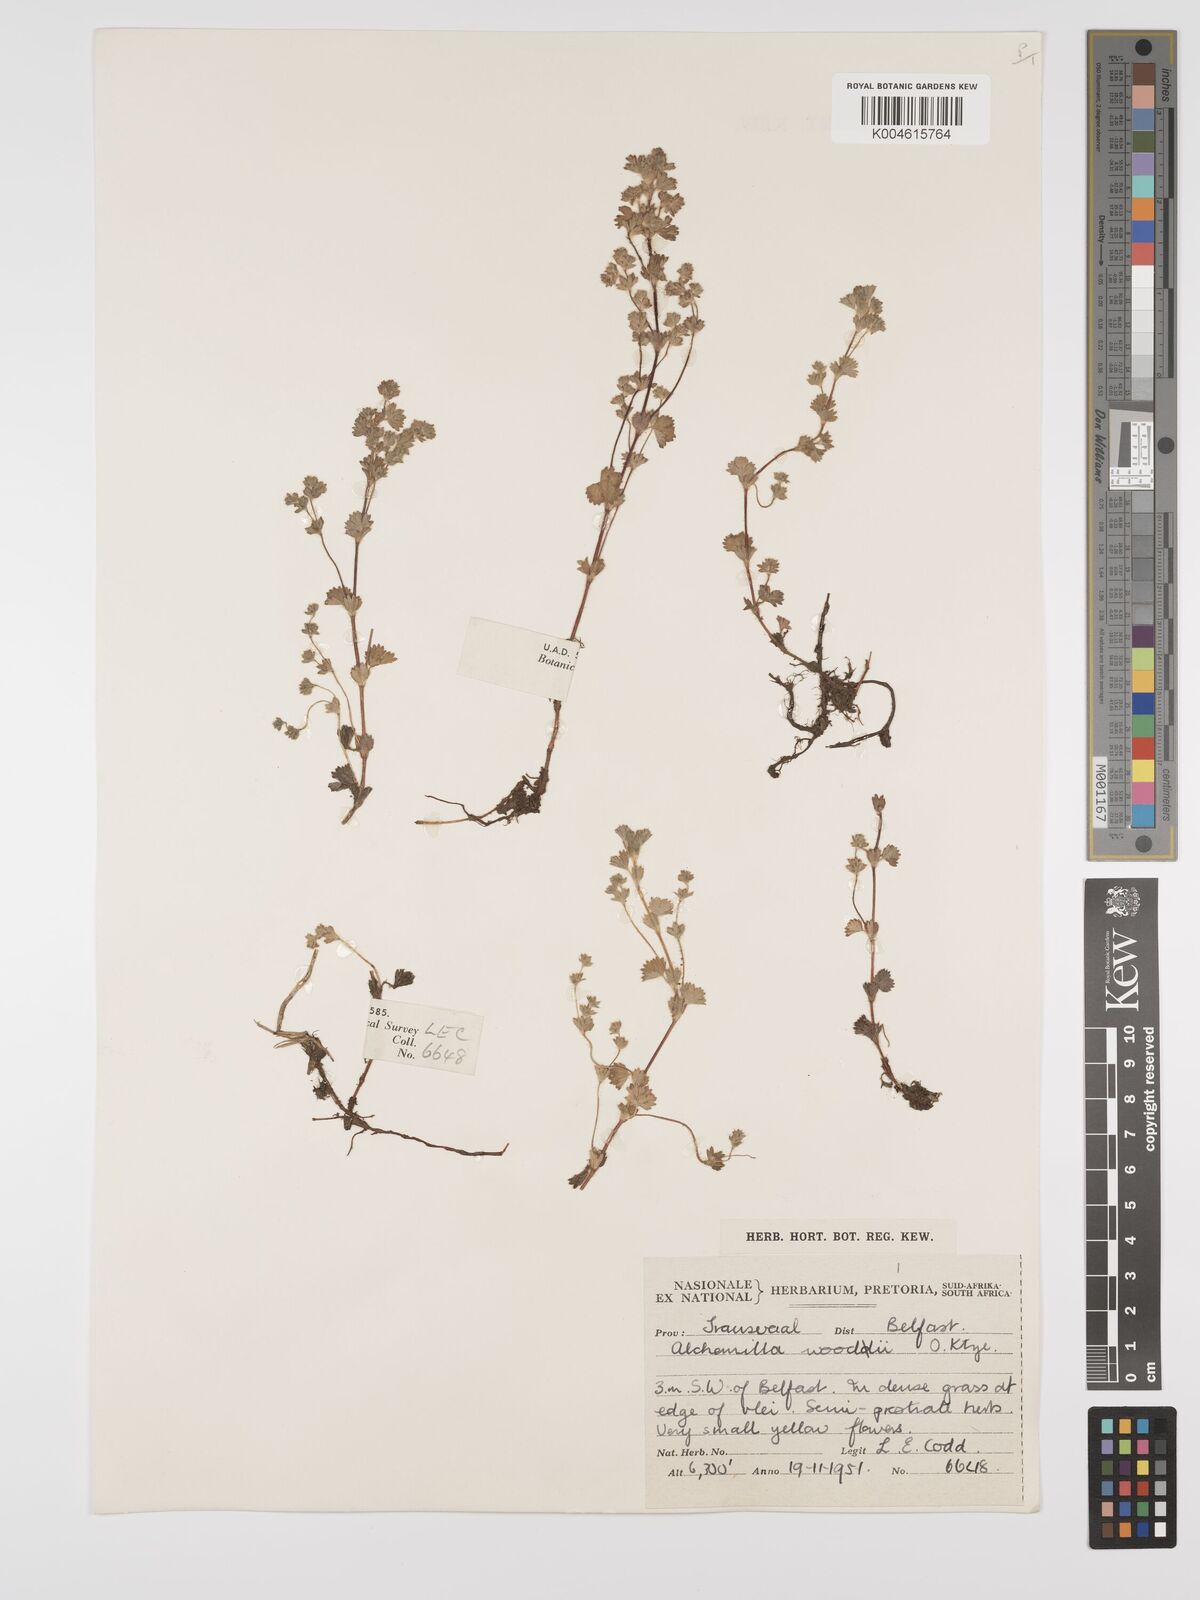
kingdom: Plantae
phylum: Tracheophyta
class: Magnoliopsida
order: Rosales
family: Rosaceae
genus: Alchemilla
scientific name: Alchemilla woodii
